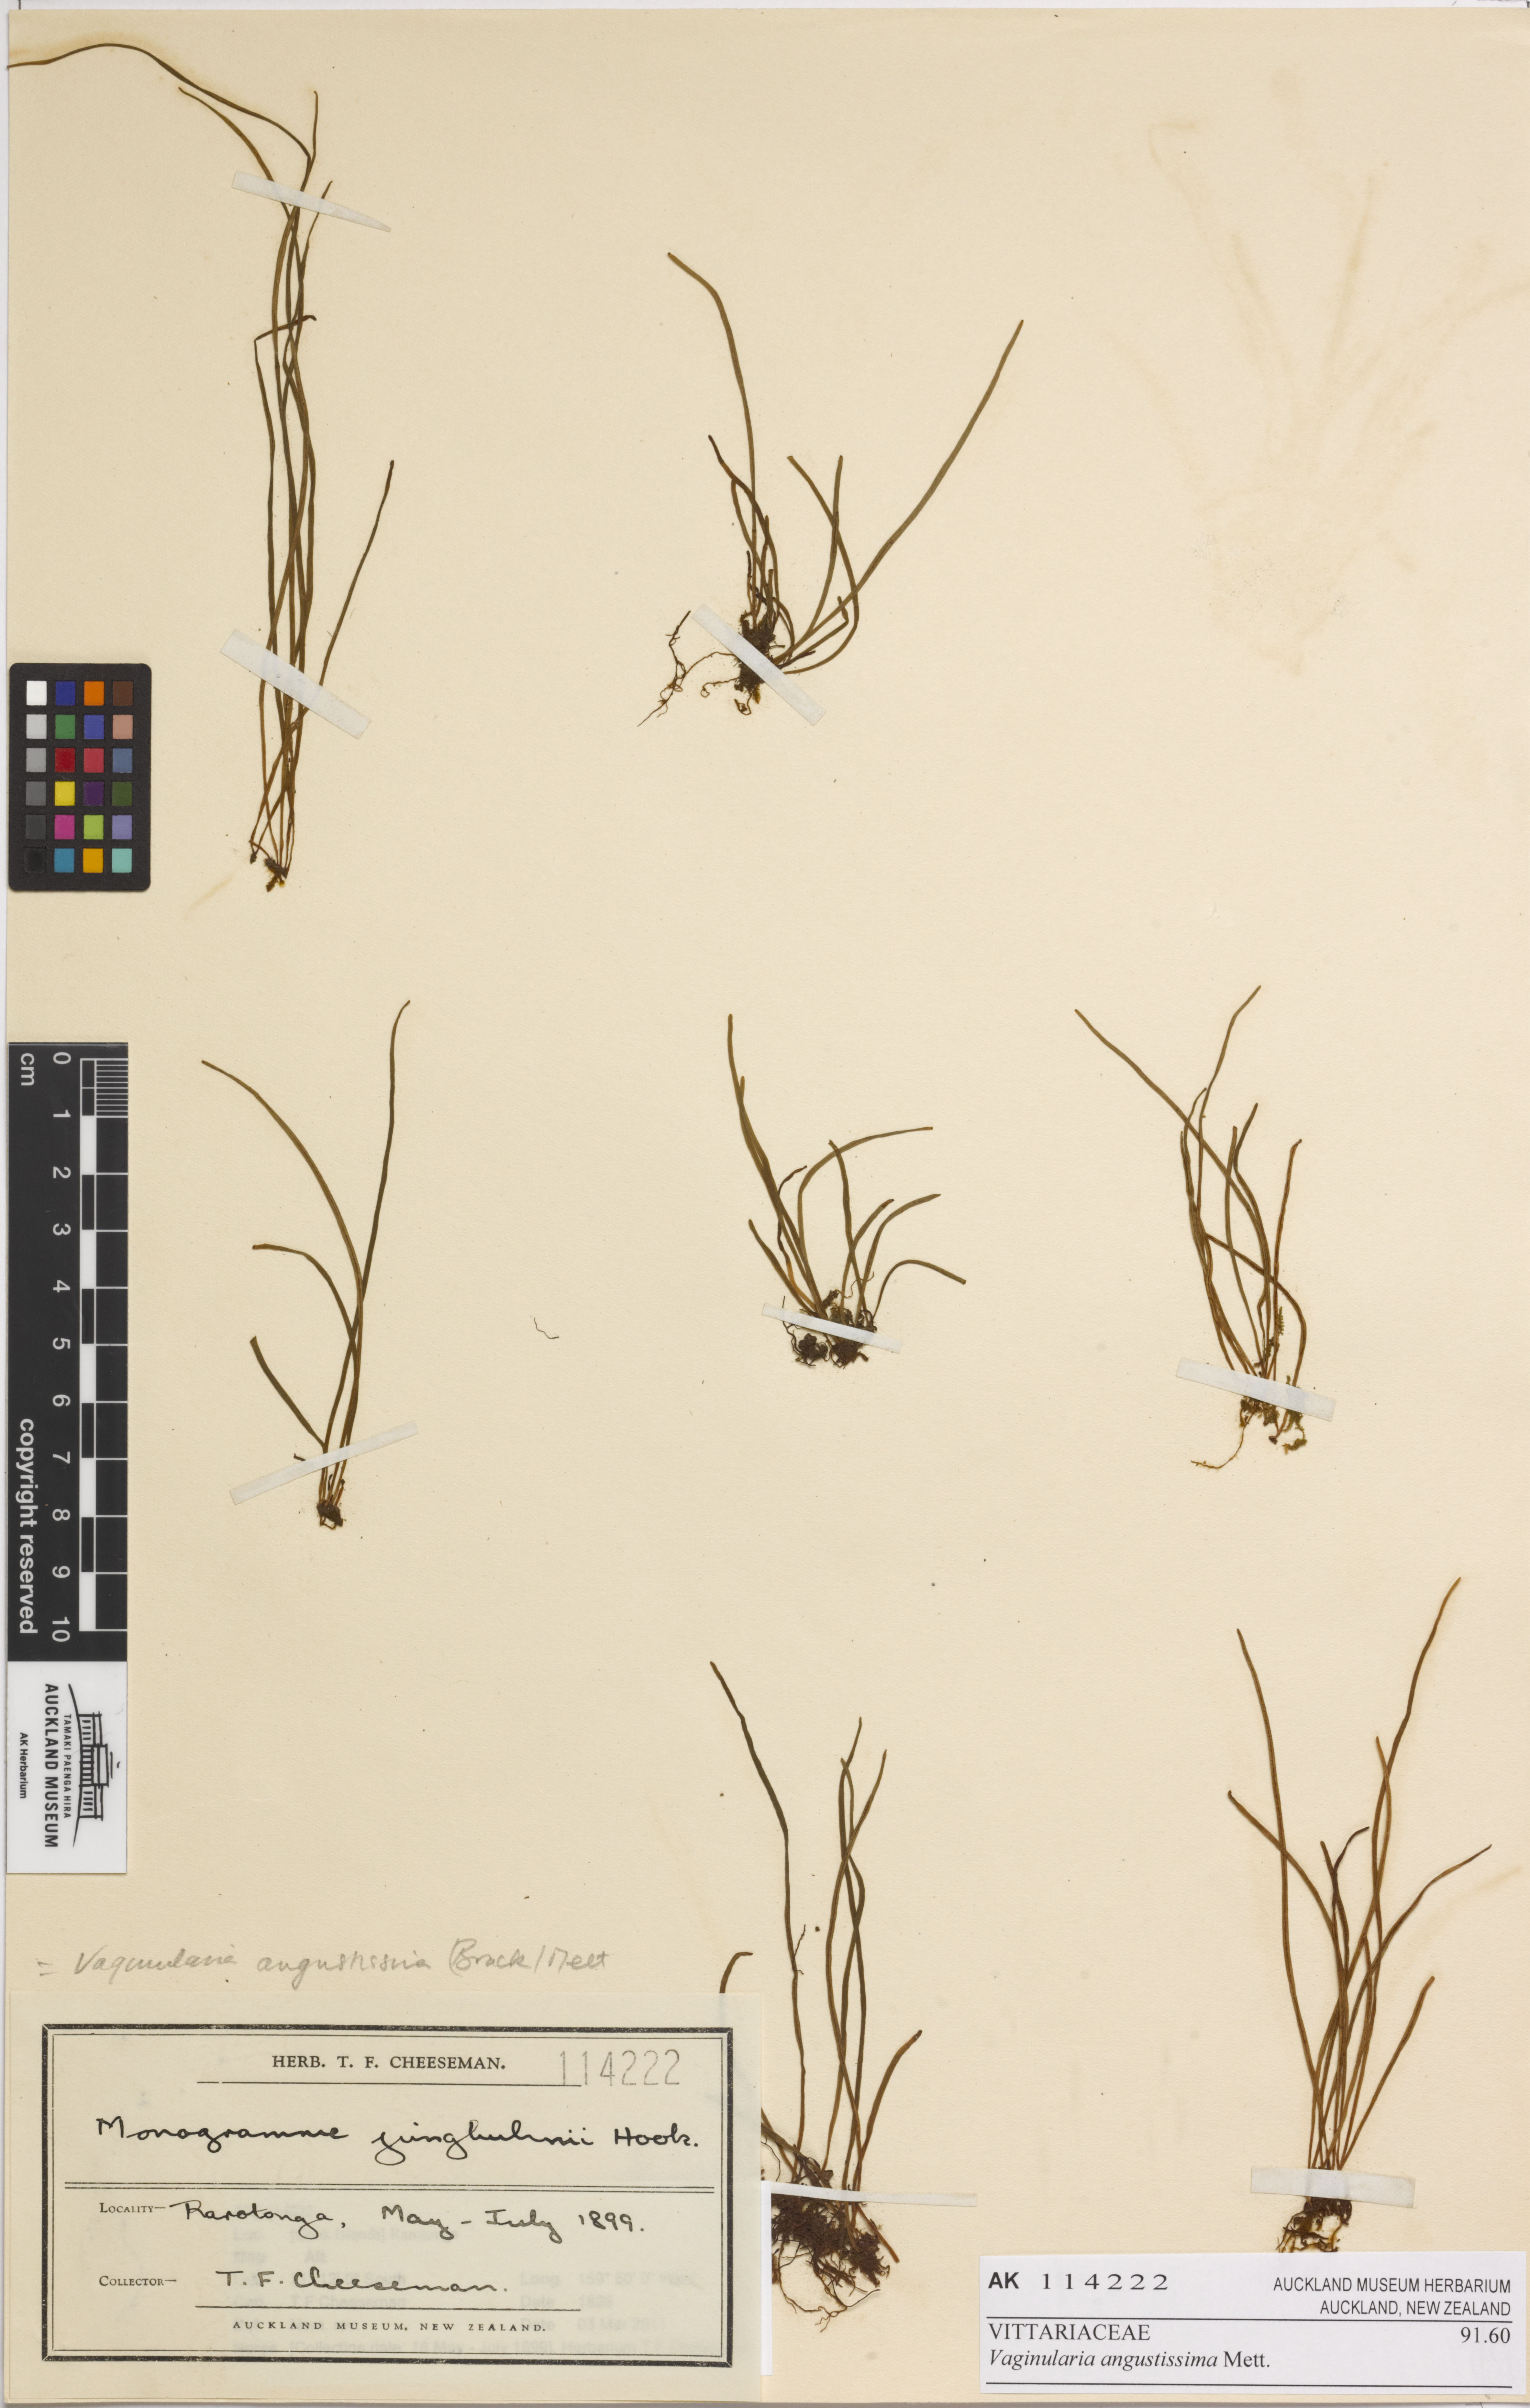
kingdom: Plantae
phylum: Tracheophyta
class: Polypodiopsida
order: Polypodiales
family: Pteridaceae
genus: Vaginularia
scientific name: Vaginularia paradoxa
